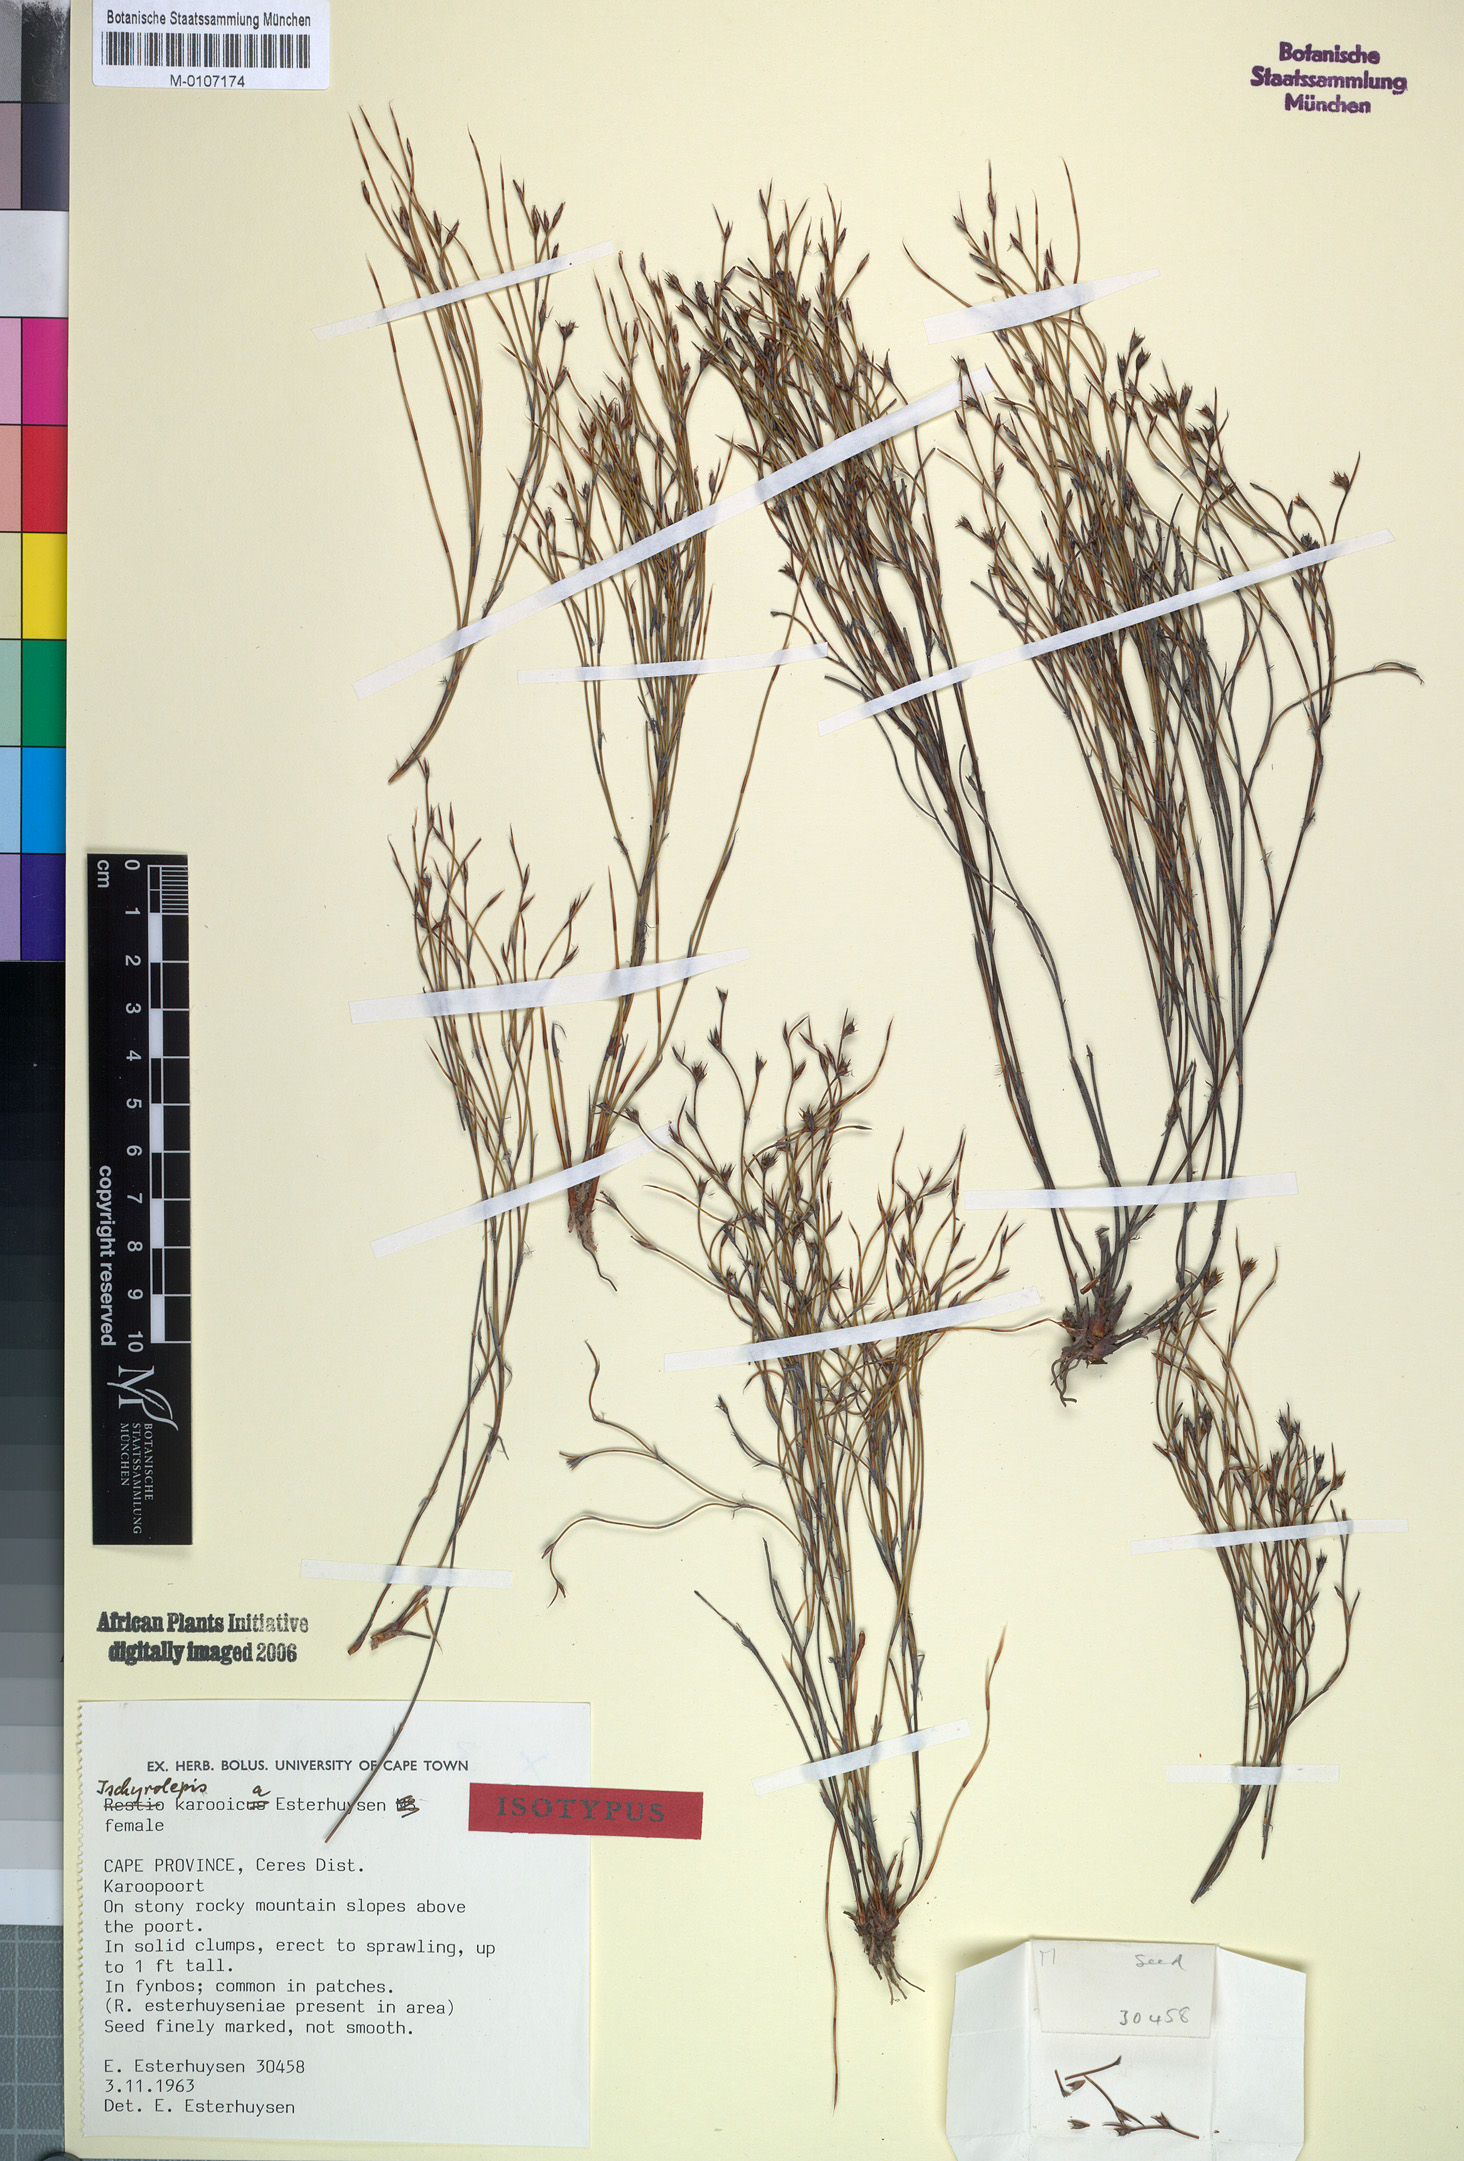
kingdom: Plantae
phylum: Tracheophyta
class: Liliopsida
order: Poales
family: Restionaceae
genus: Restio
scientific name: Restio karooicus
